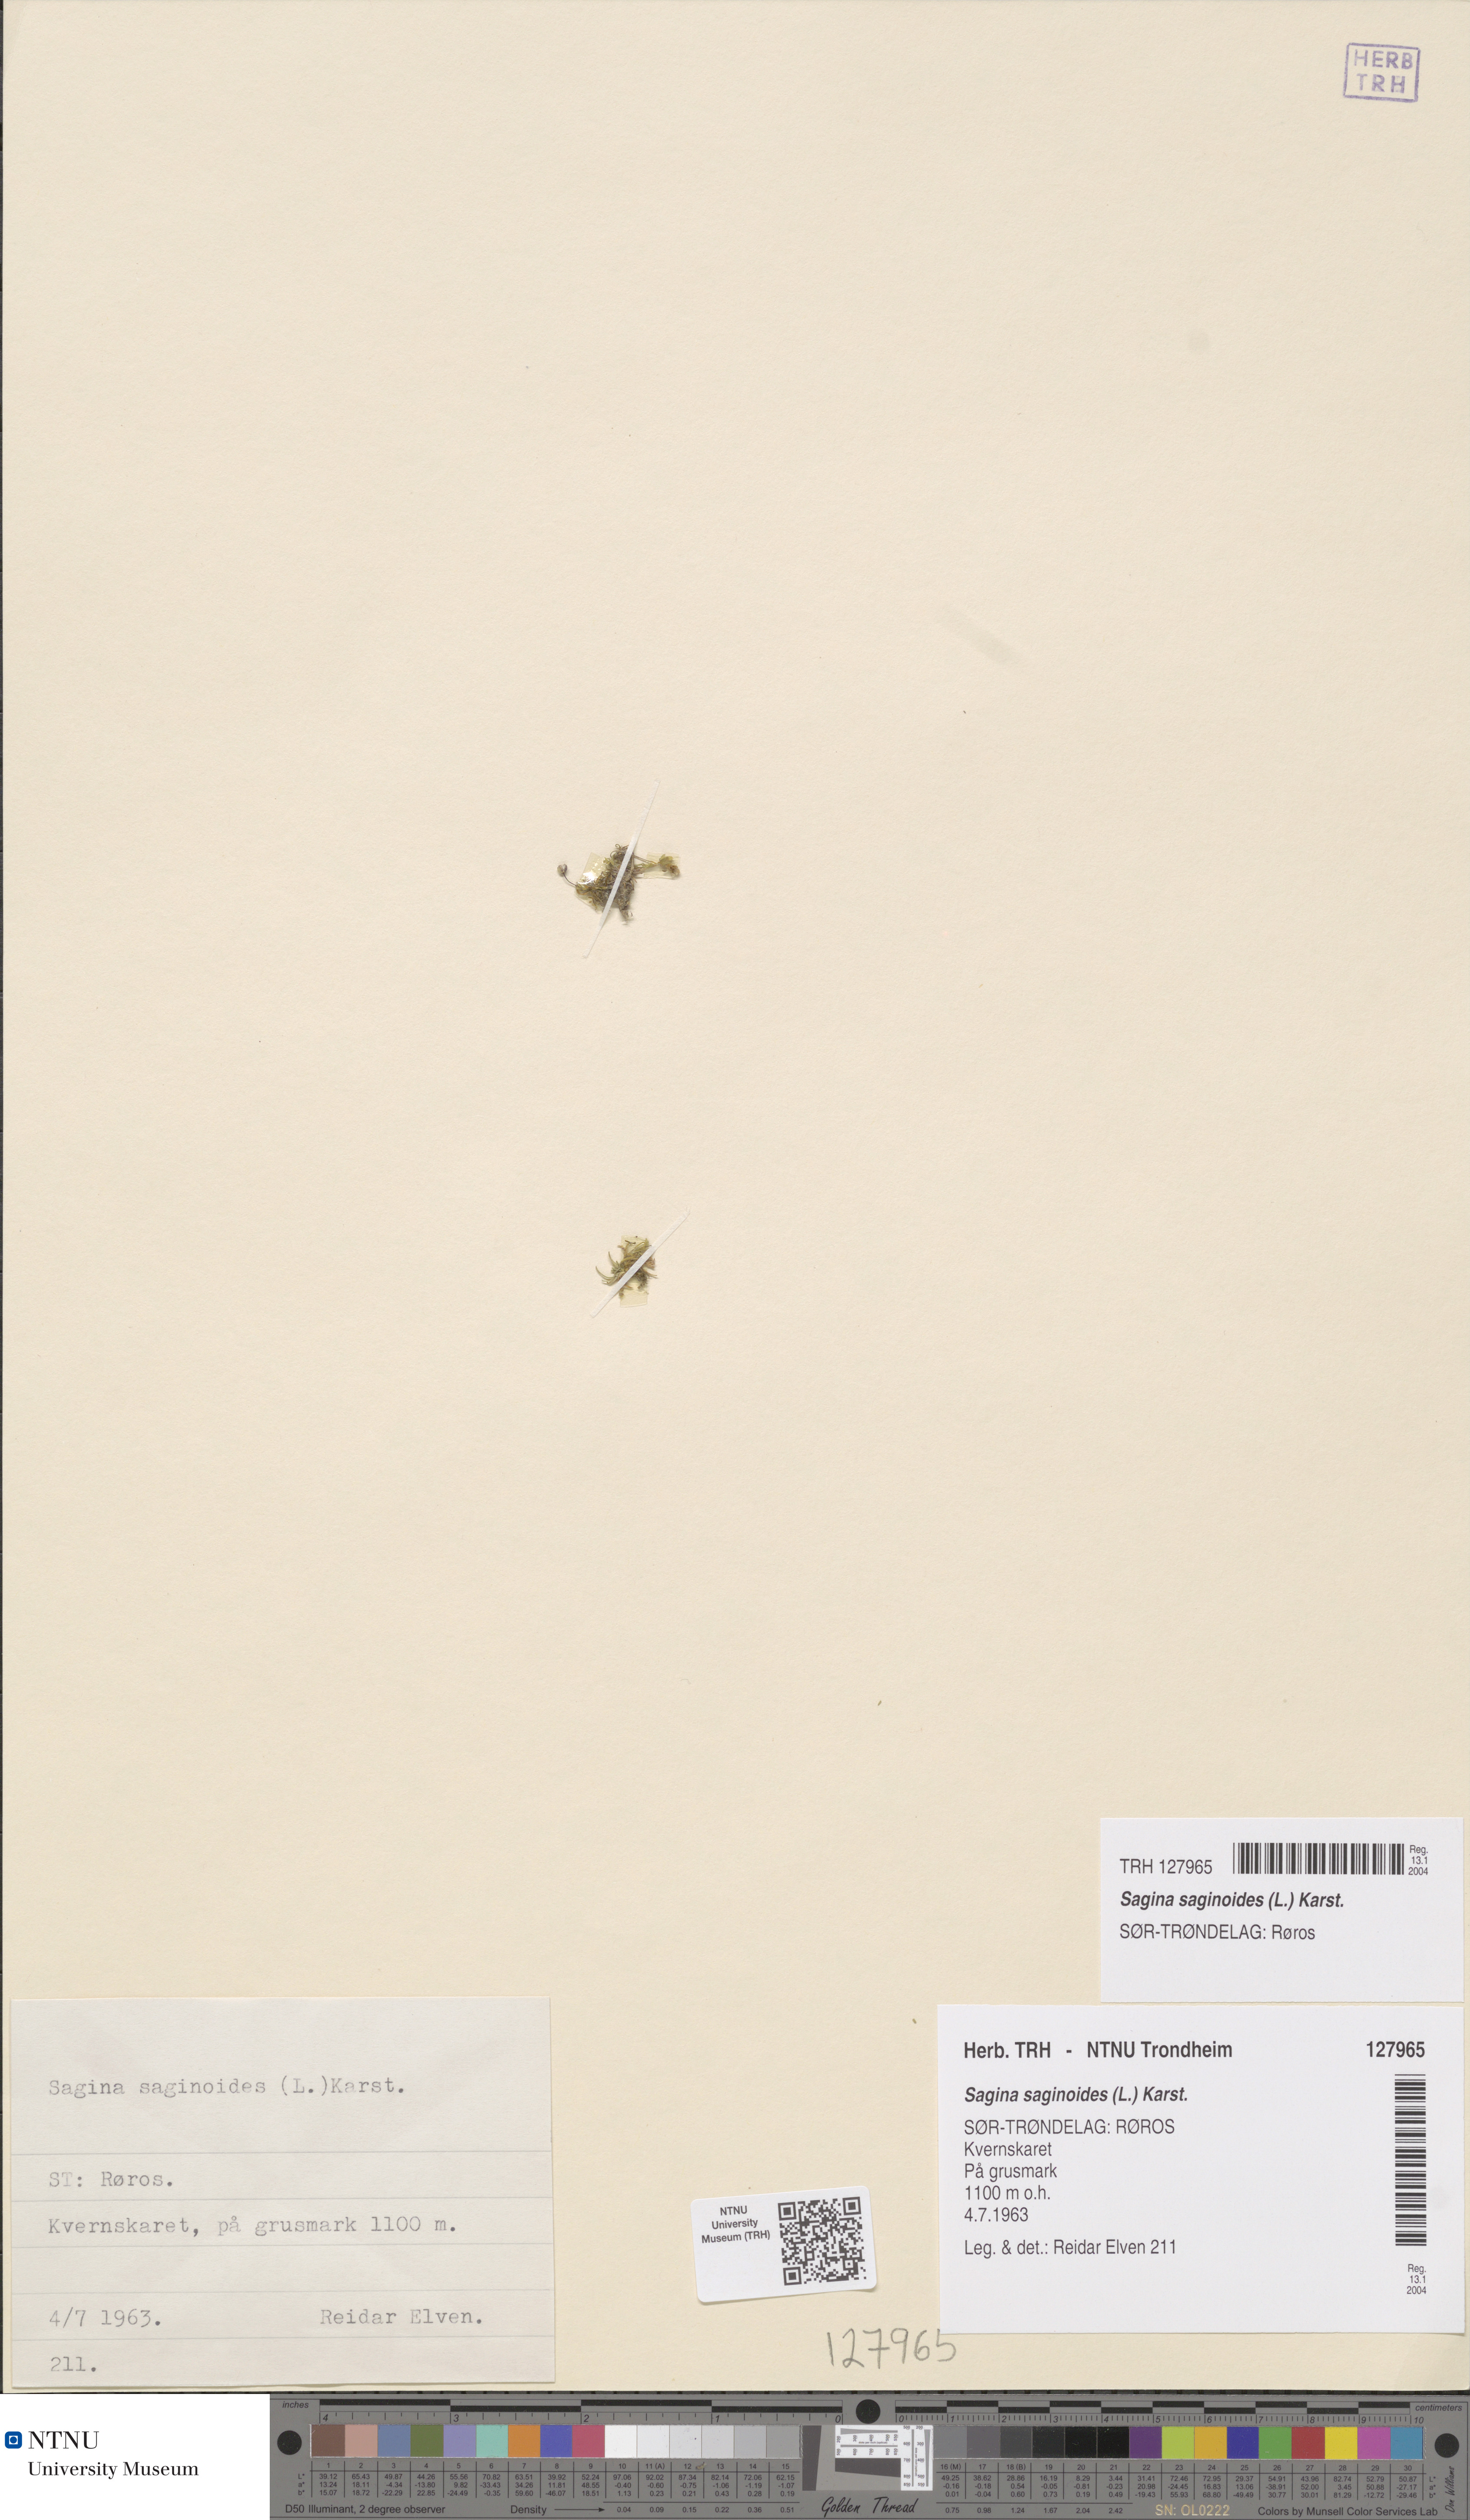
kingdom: Plantae
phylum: Tracheophyta
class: Magnoliopsida
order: Caryophyllales
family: Caryophyllaceae
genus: Sagina
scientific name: Sagina saginoides
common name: Alpine pearlwort
